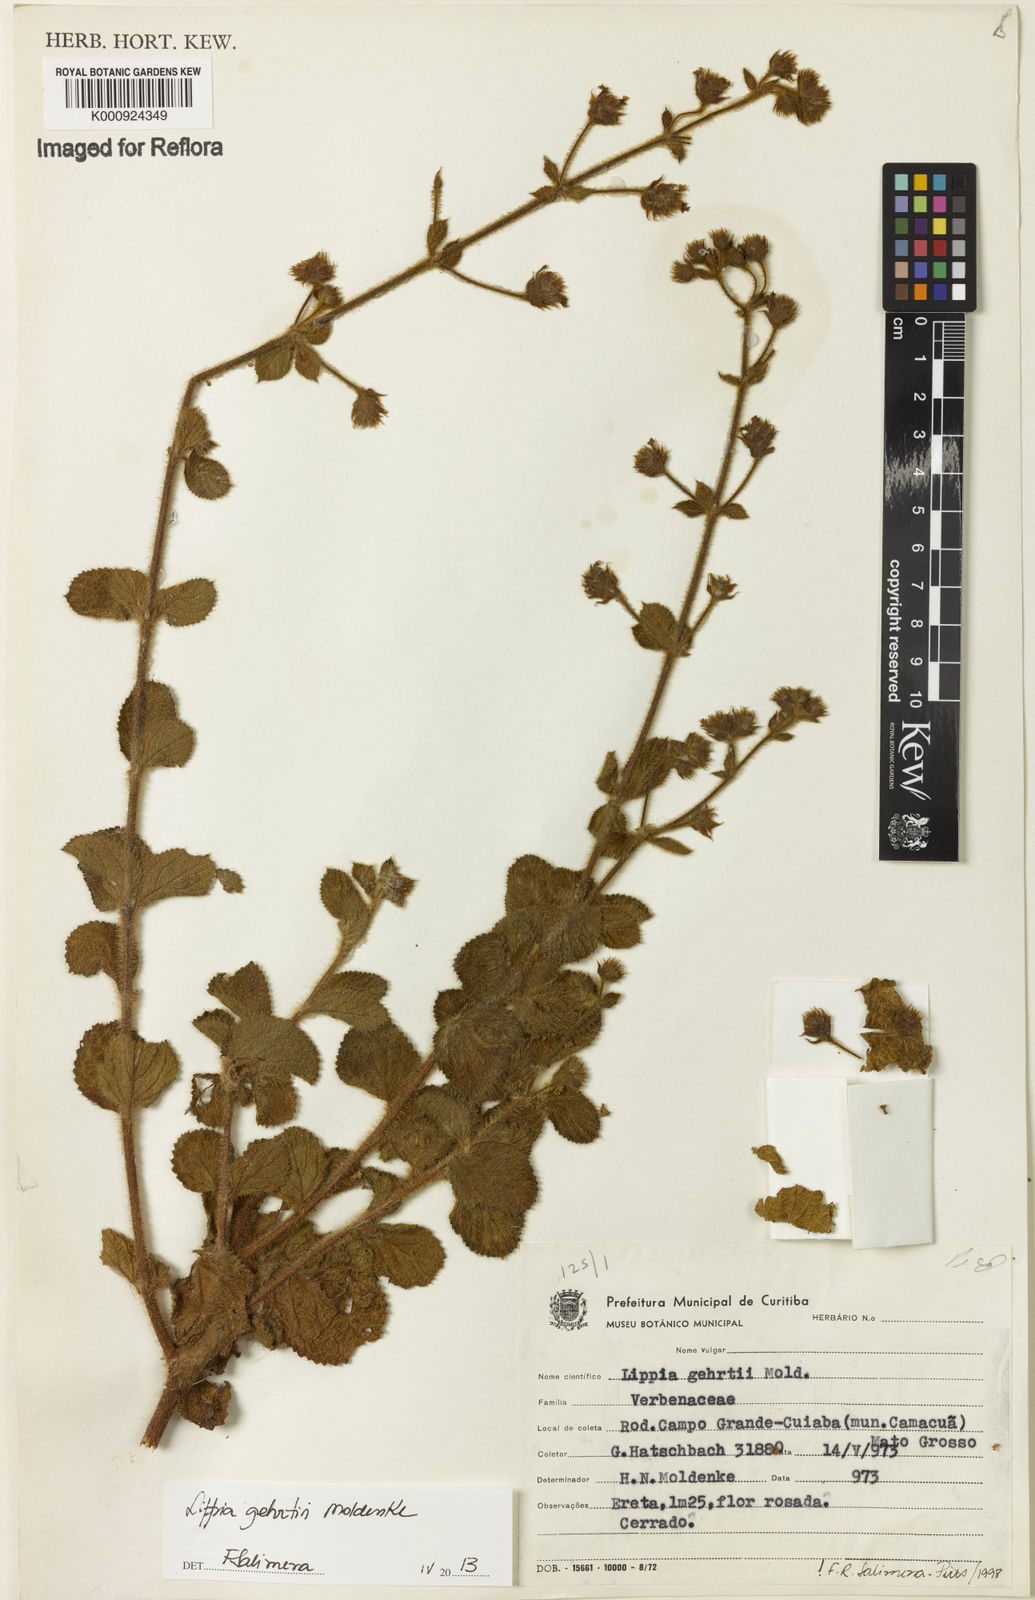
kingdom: Plantae
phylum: Tracheophyta
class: Magnoliopsida
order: Lamiales
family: Verbenaceae
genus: Lippia
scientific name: Lippia gehrtii
